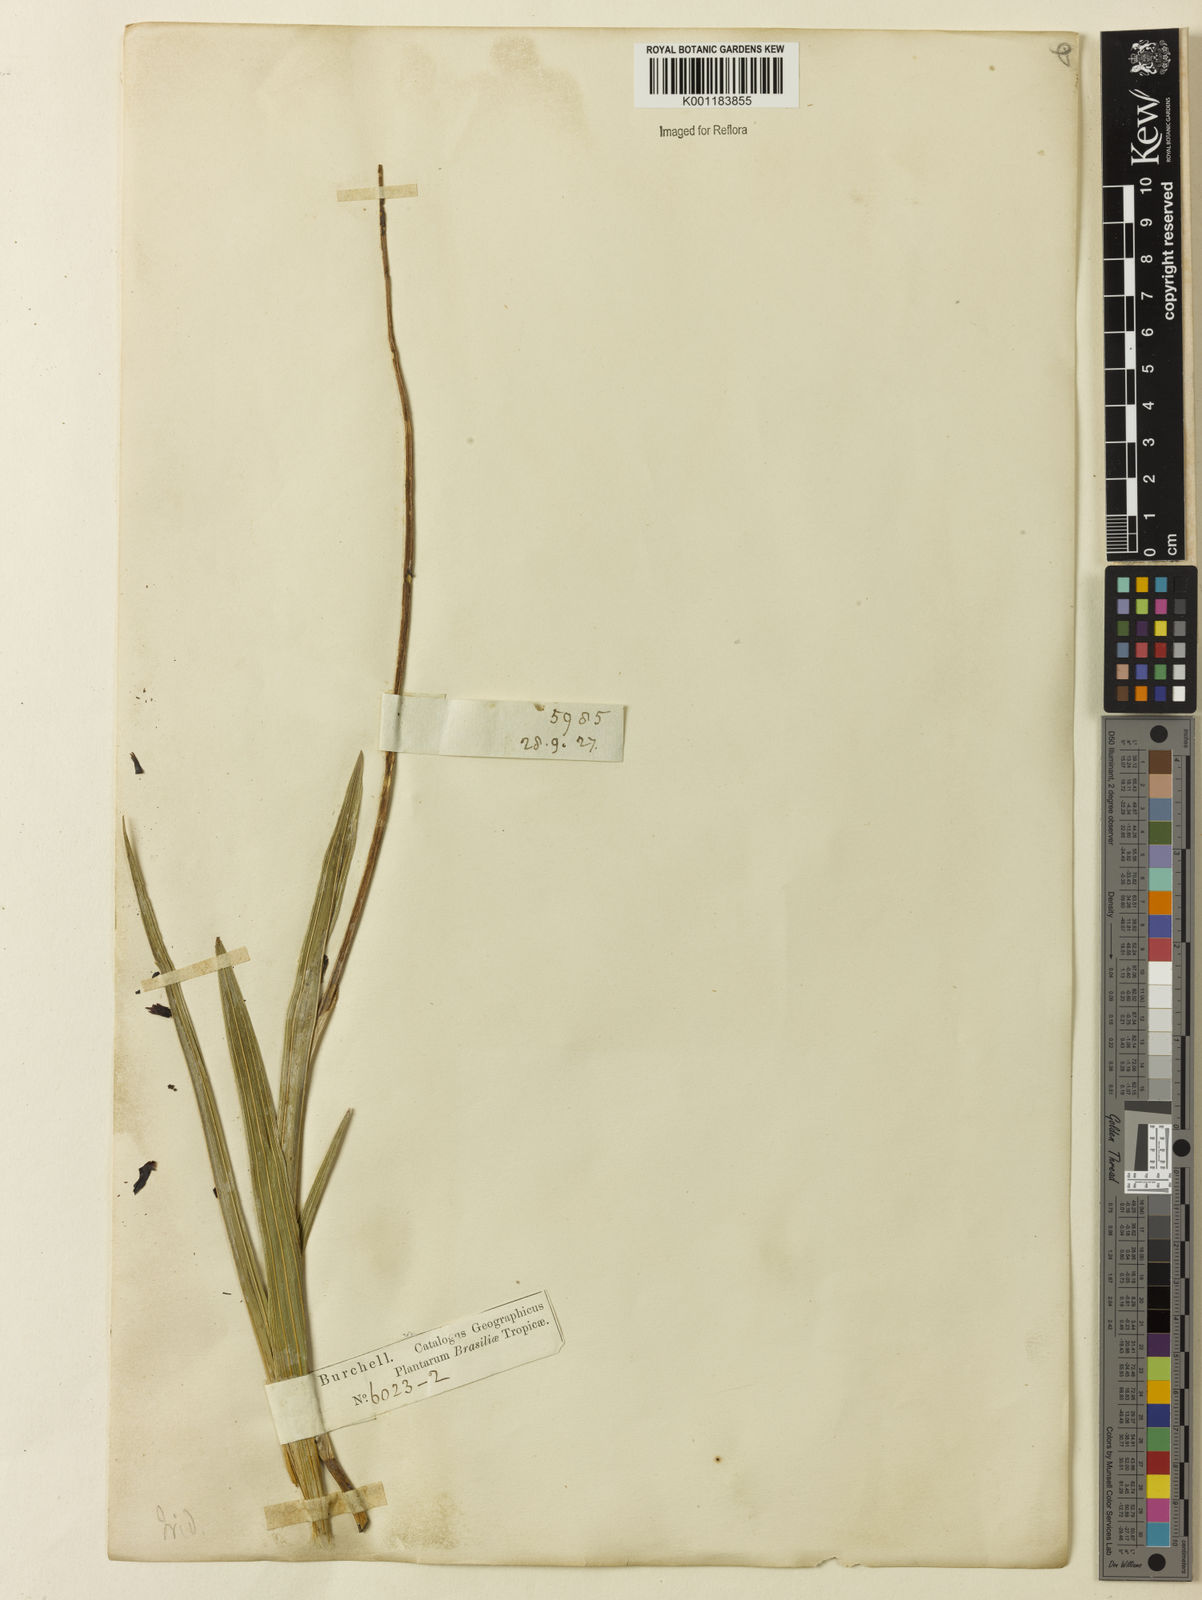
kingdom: Plantae
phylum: Tracheophyta
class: Liliopsida
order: Asparagales
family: Iridaceae
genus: Cipura
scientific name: Cipura paludosa
